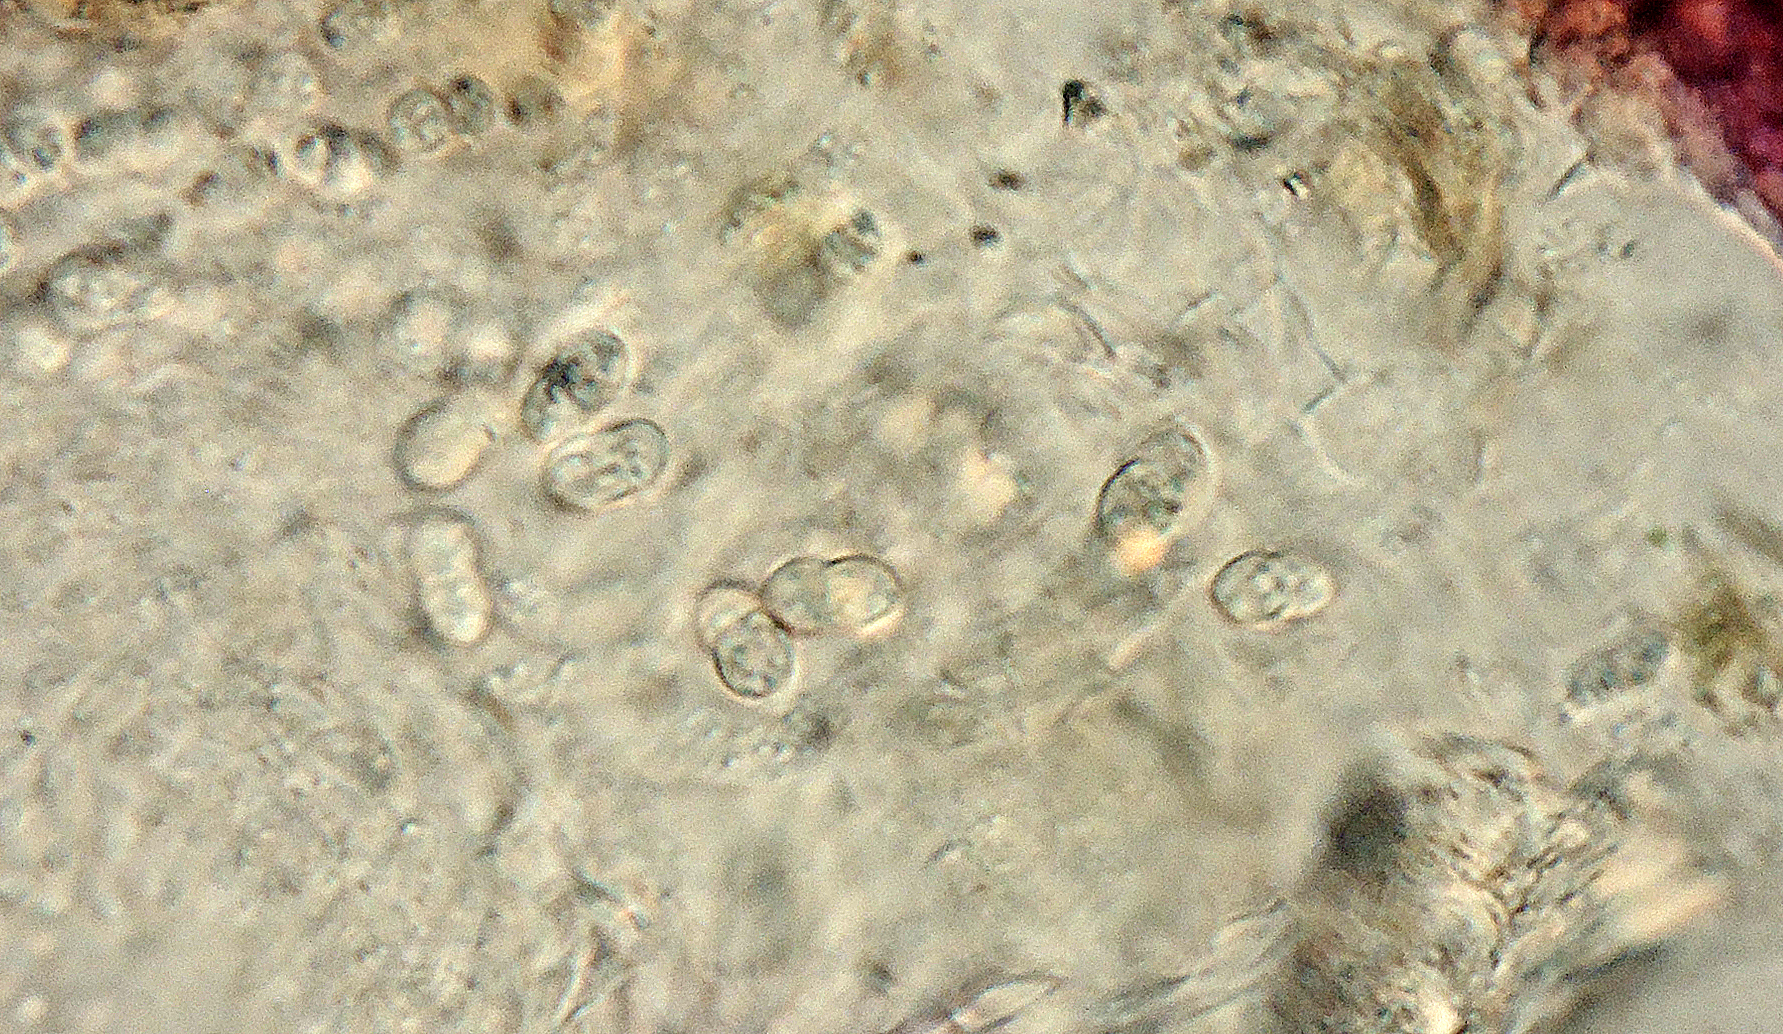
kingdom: Fungi
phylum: Ascomycota
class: Sordariomycetes
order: Hypocreales
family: Nectriaceae
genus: Dialonectria
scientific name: Dialonectria episphaeria
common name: kulskorpe-cinnobersvamp
